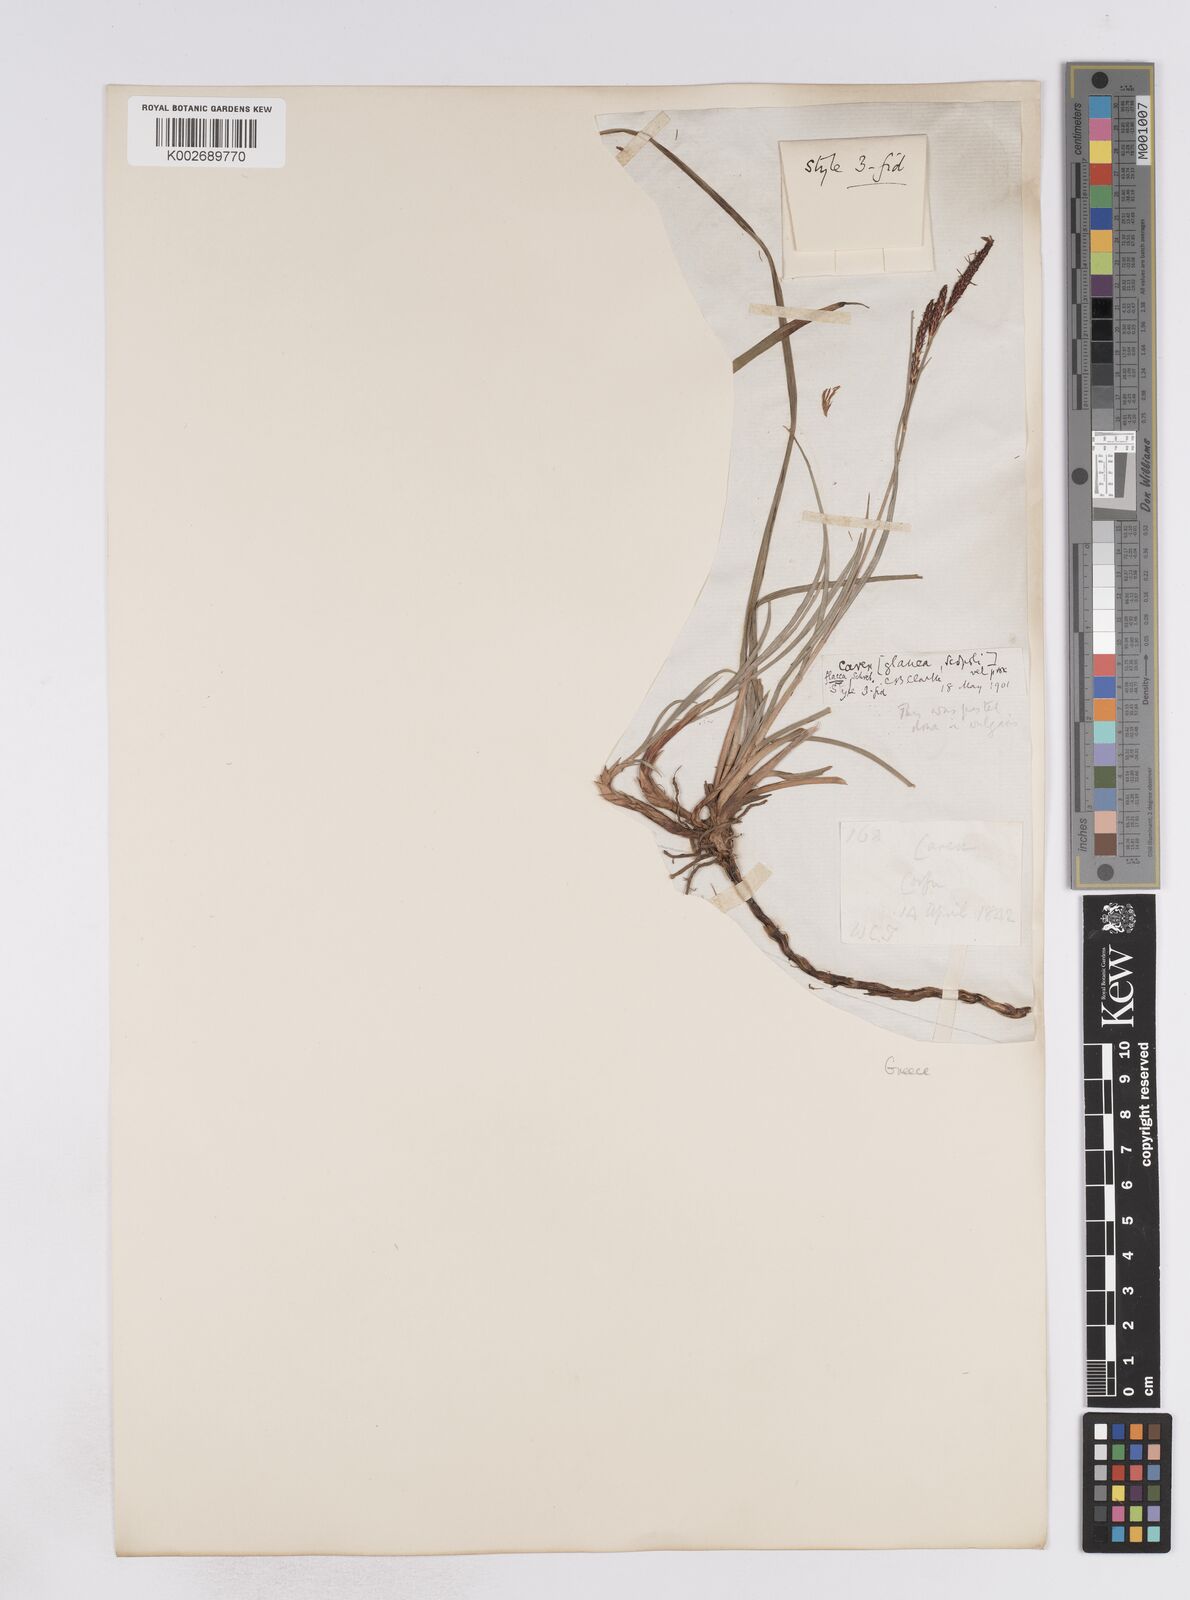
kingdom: Plantae
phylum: Tracheophyta
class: Liliopsida
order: Poales
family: Cyperaceae
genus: Carex
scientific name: Carex flacca
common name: Glaucous sedge
